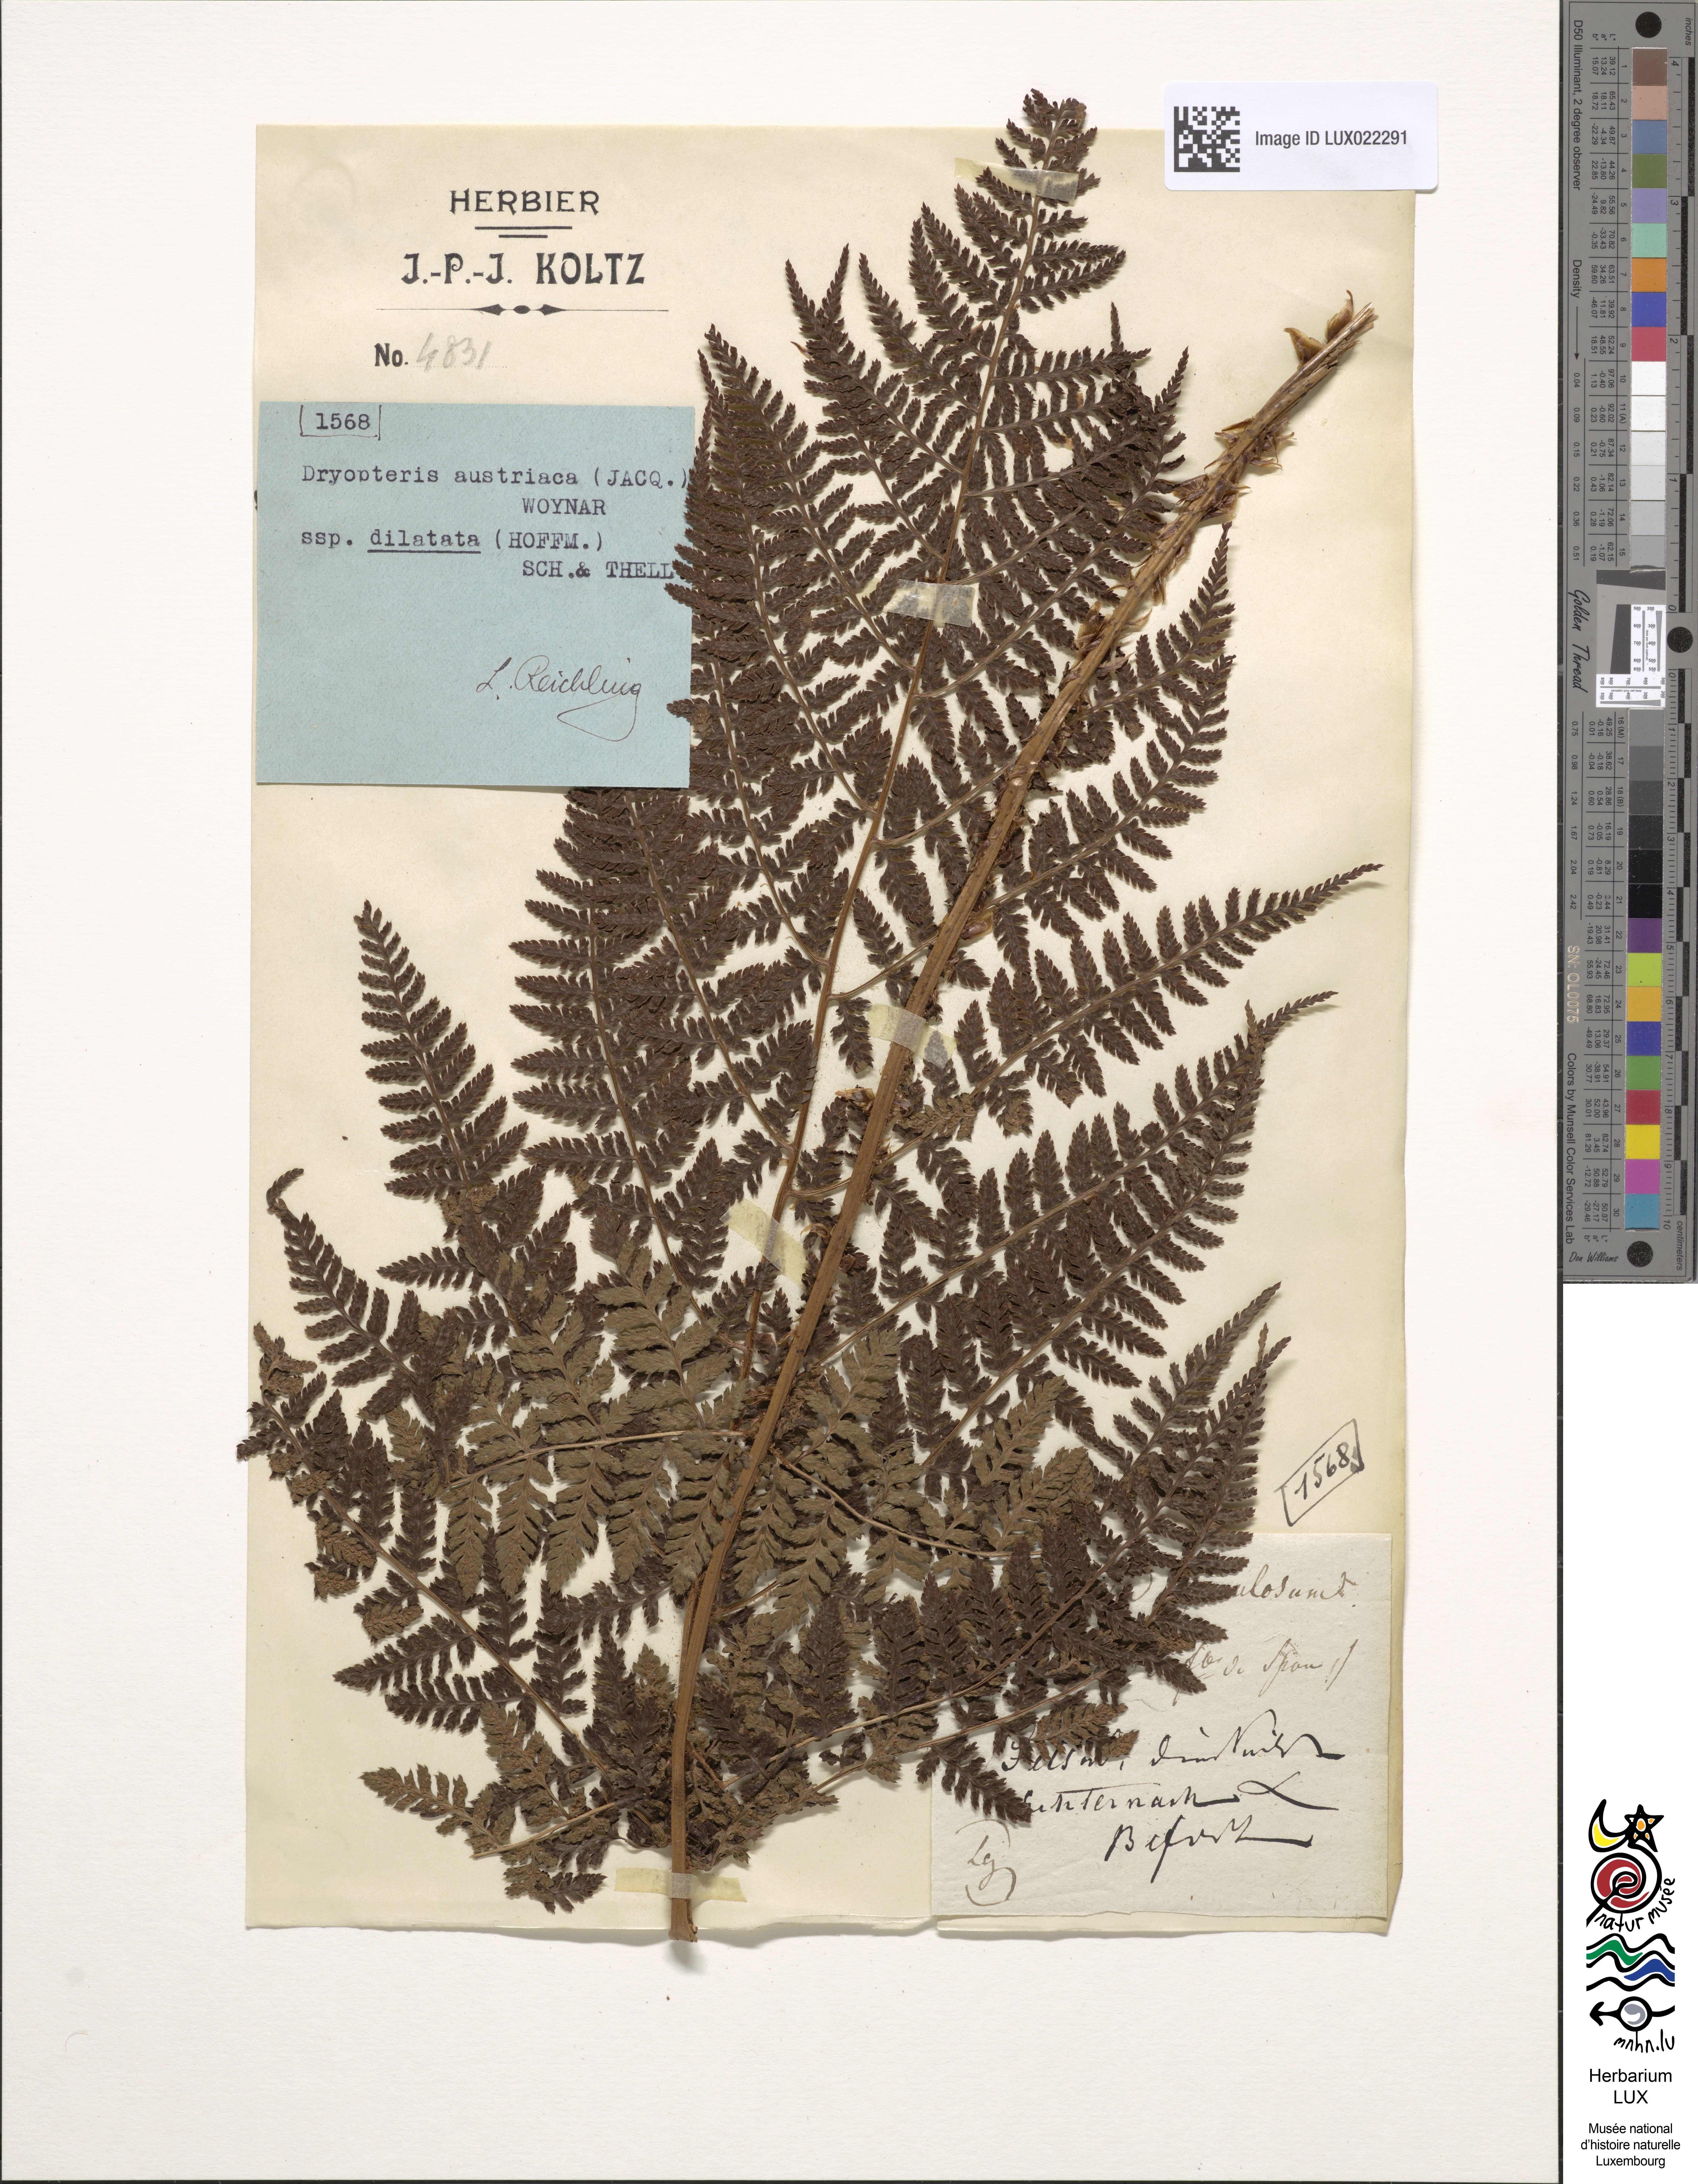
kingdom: Plantae
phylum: Tracheophyta
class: Polypodiopsida
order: Polypodiales
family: Dryopteridaceae
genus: Dryopteris
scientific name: Dryopteris carthusiana
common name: Narrow buckler-fern
